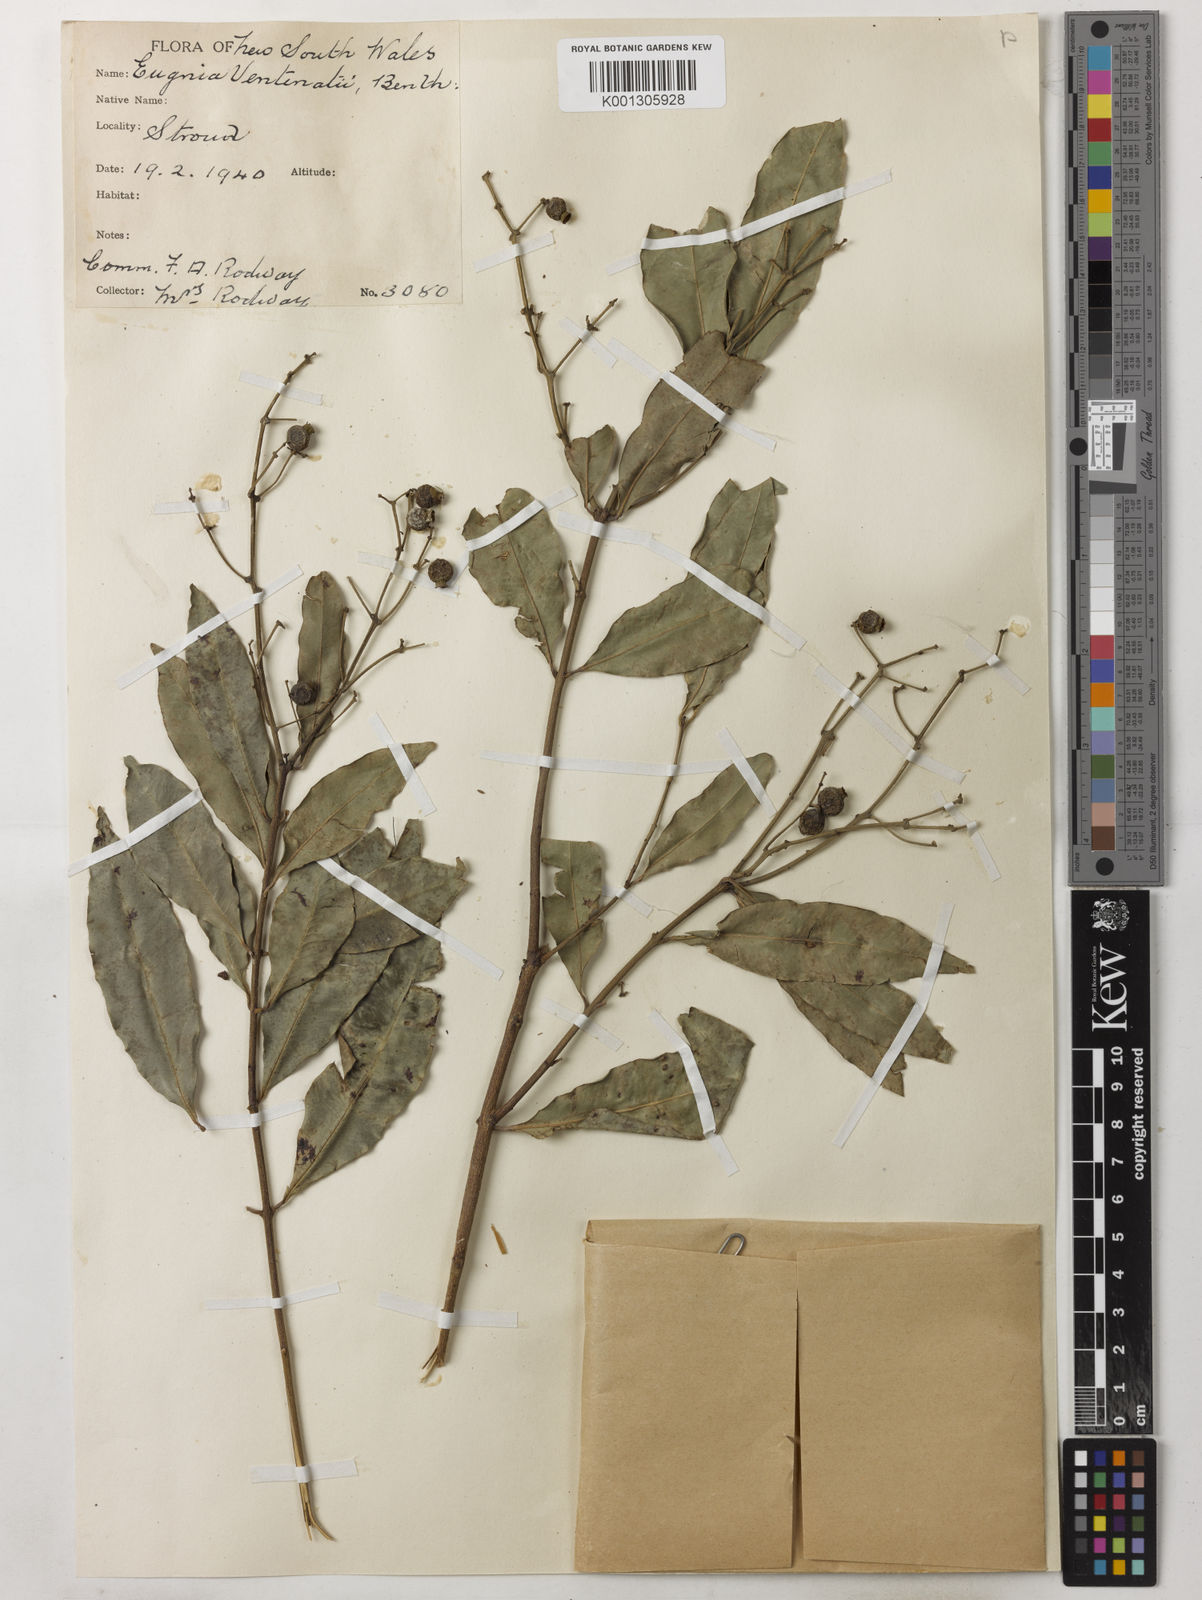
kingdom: Plantae
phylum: Tracheophyta
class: Magnoliopsida
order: Myrtales
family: Myrtaceae
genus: Syzygium
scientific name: Syzygium floribundum
